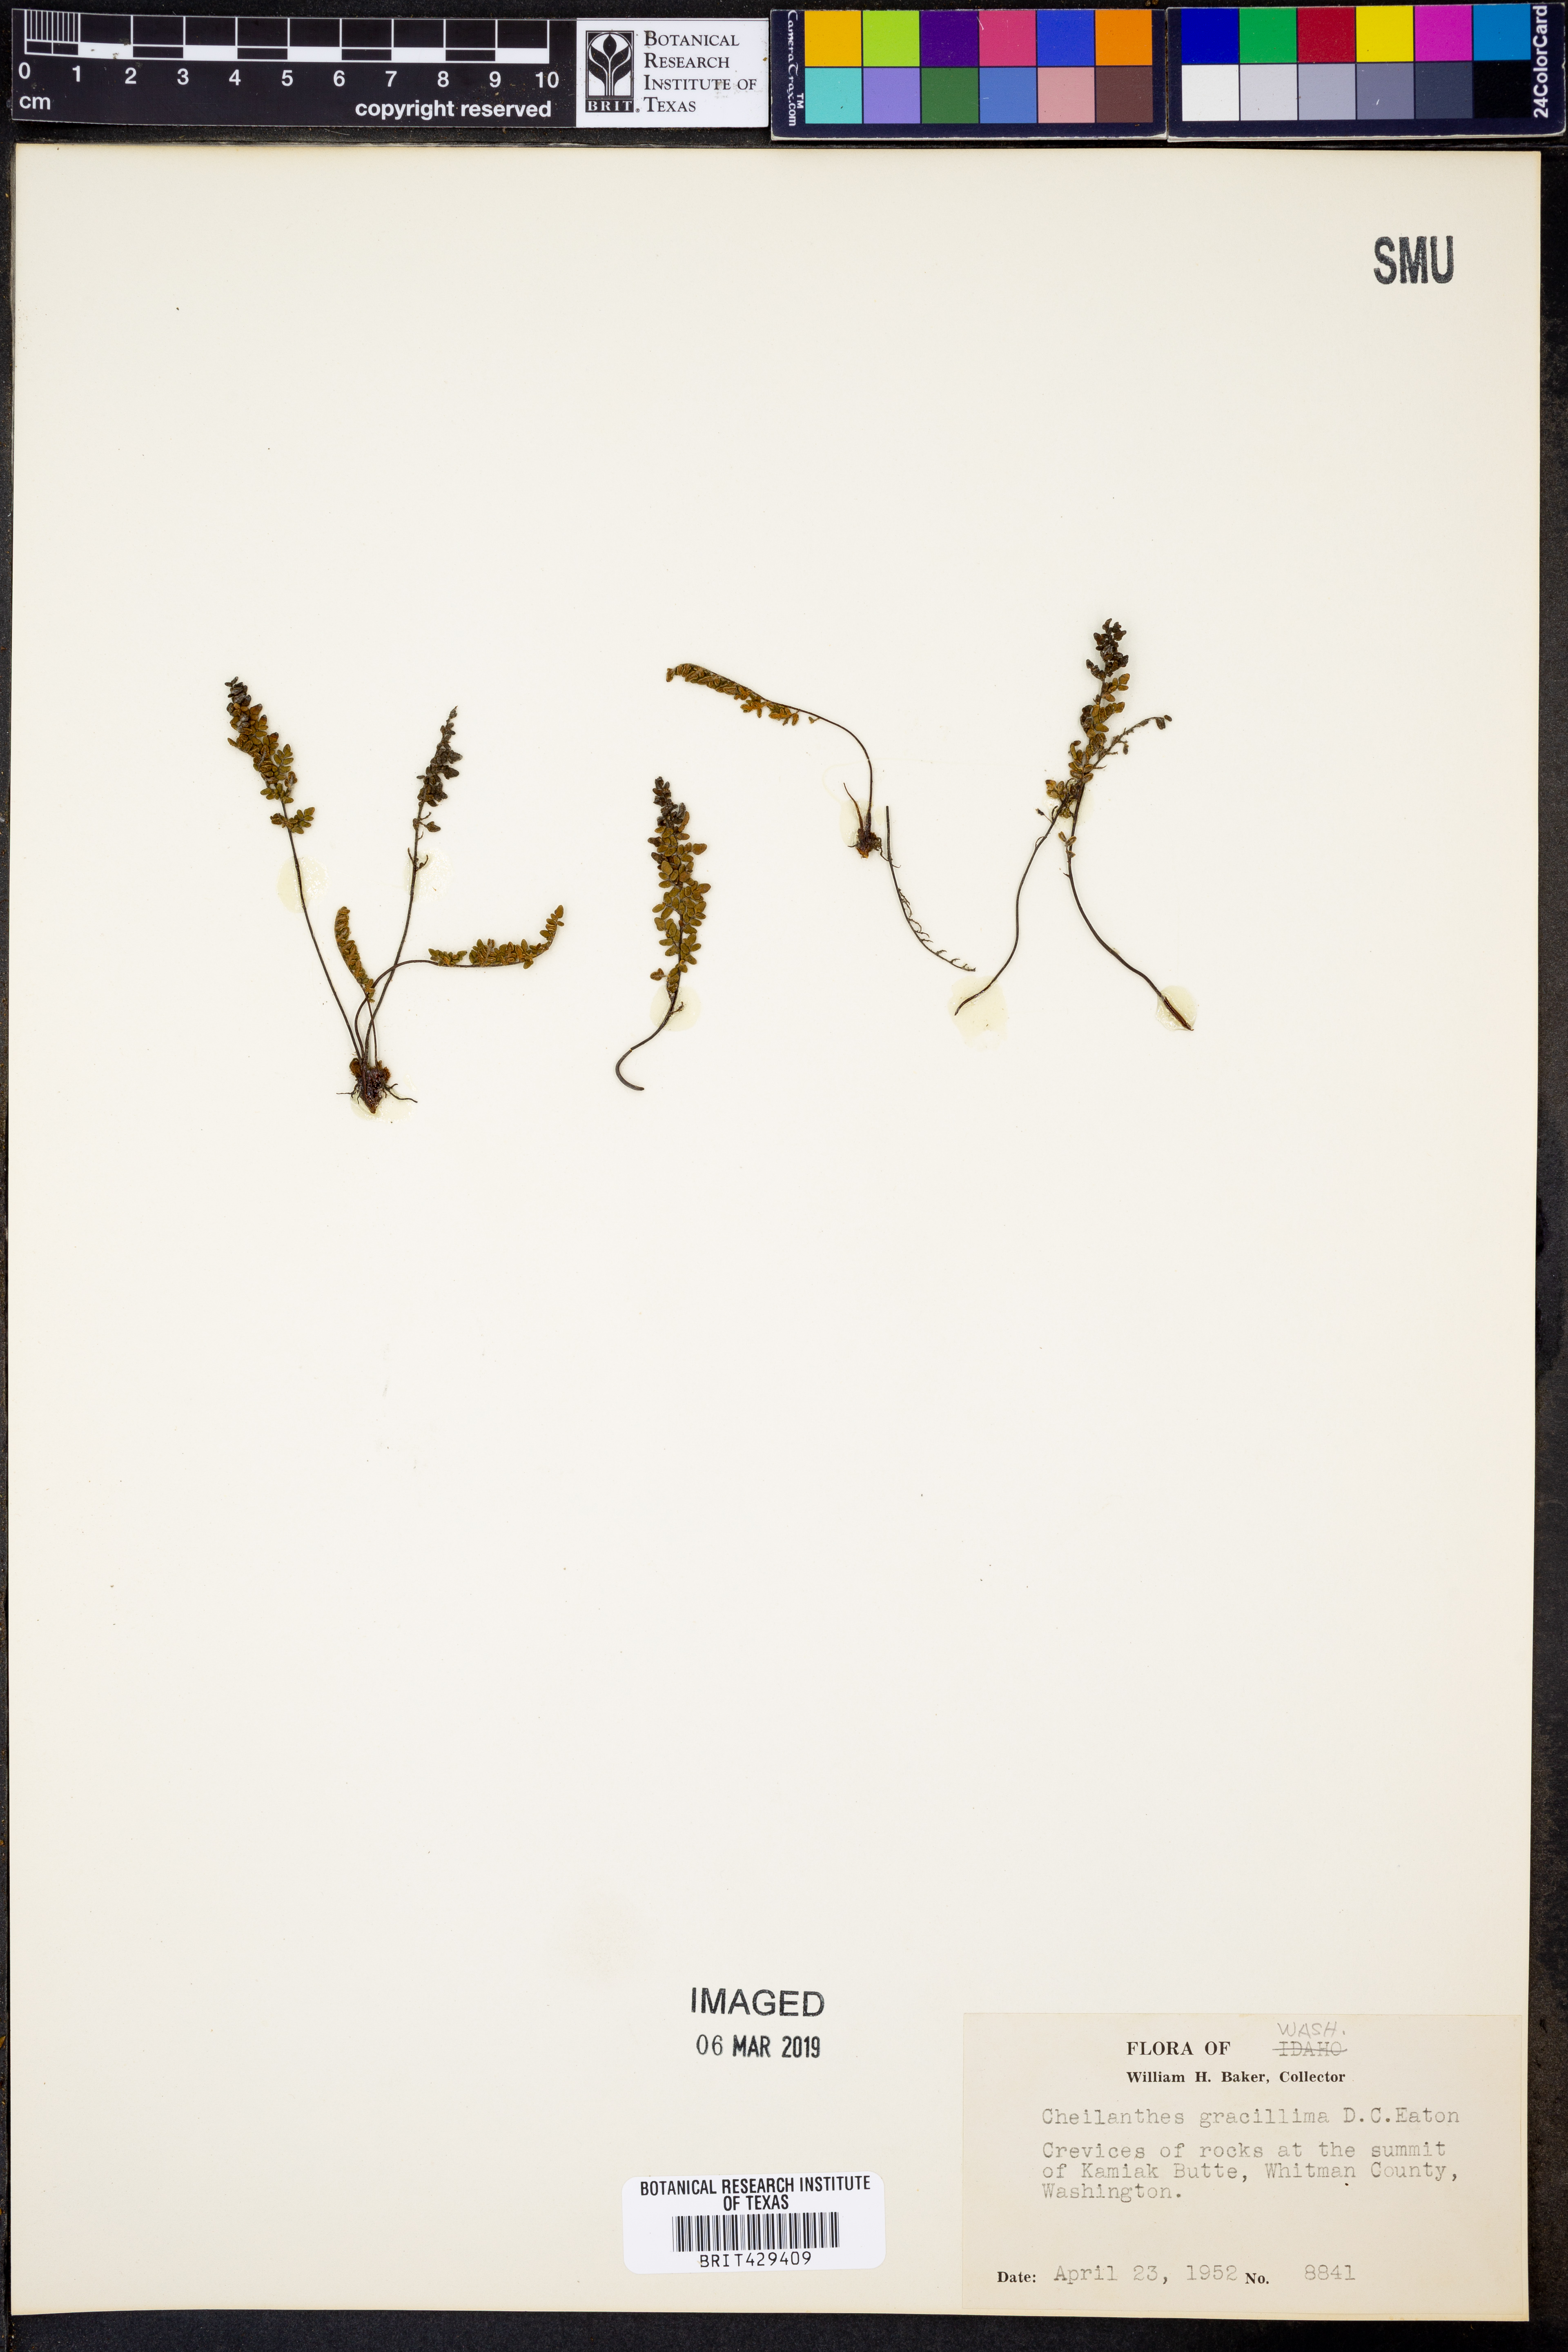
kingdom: Plantae
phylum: Tracheophyta
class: Polypodiopsida
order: Polypodiales
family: Pteridaceae
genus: Myriopteris
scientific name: Myriopteris gracillima
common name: Lace fern
